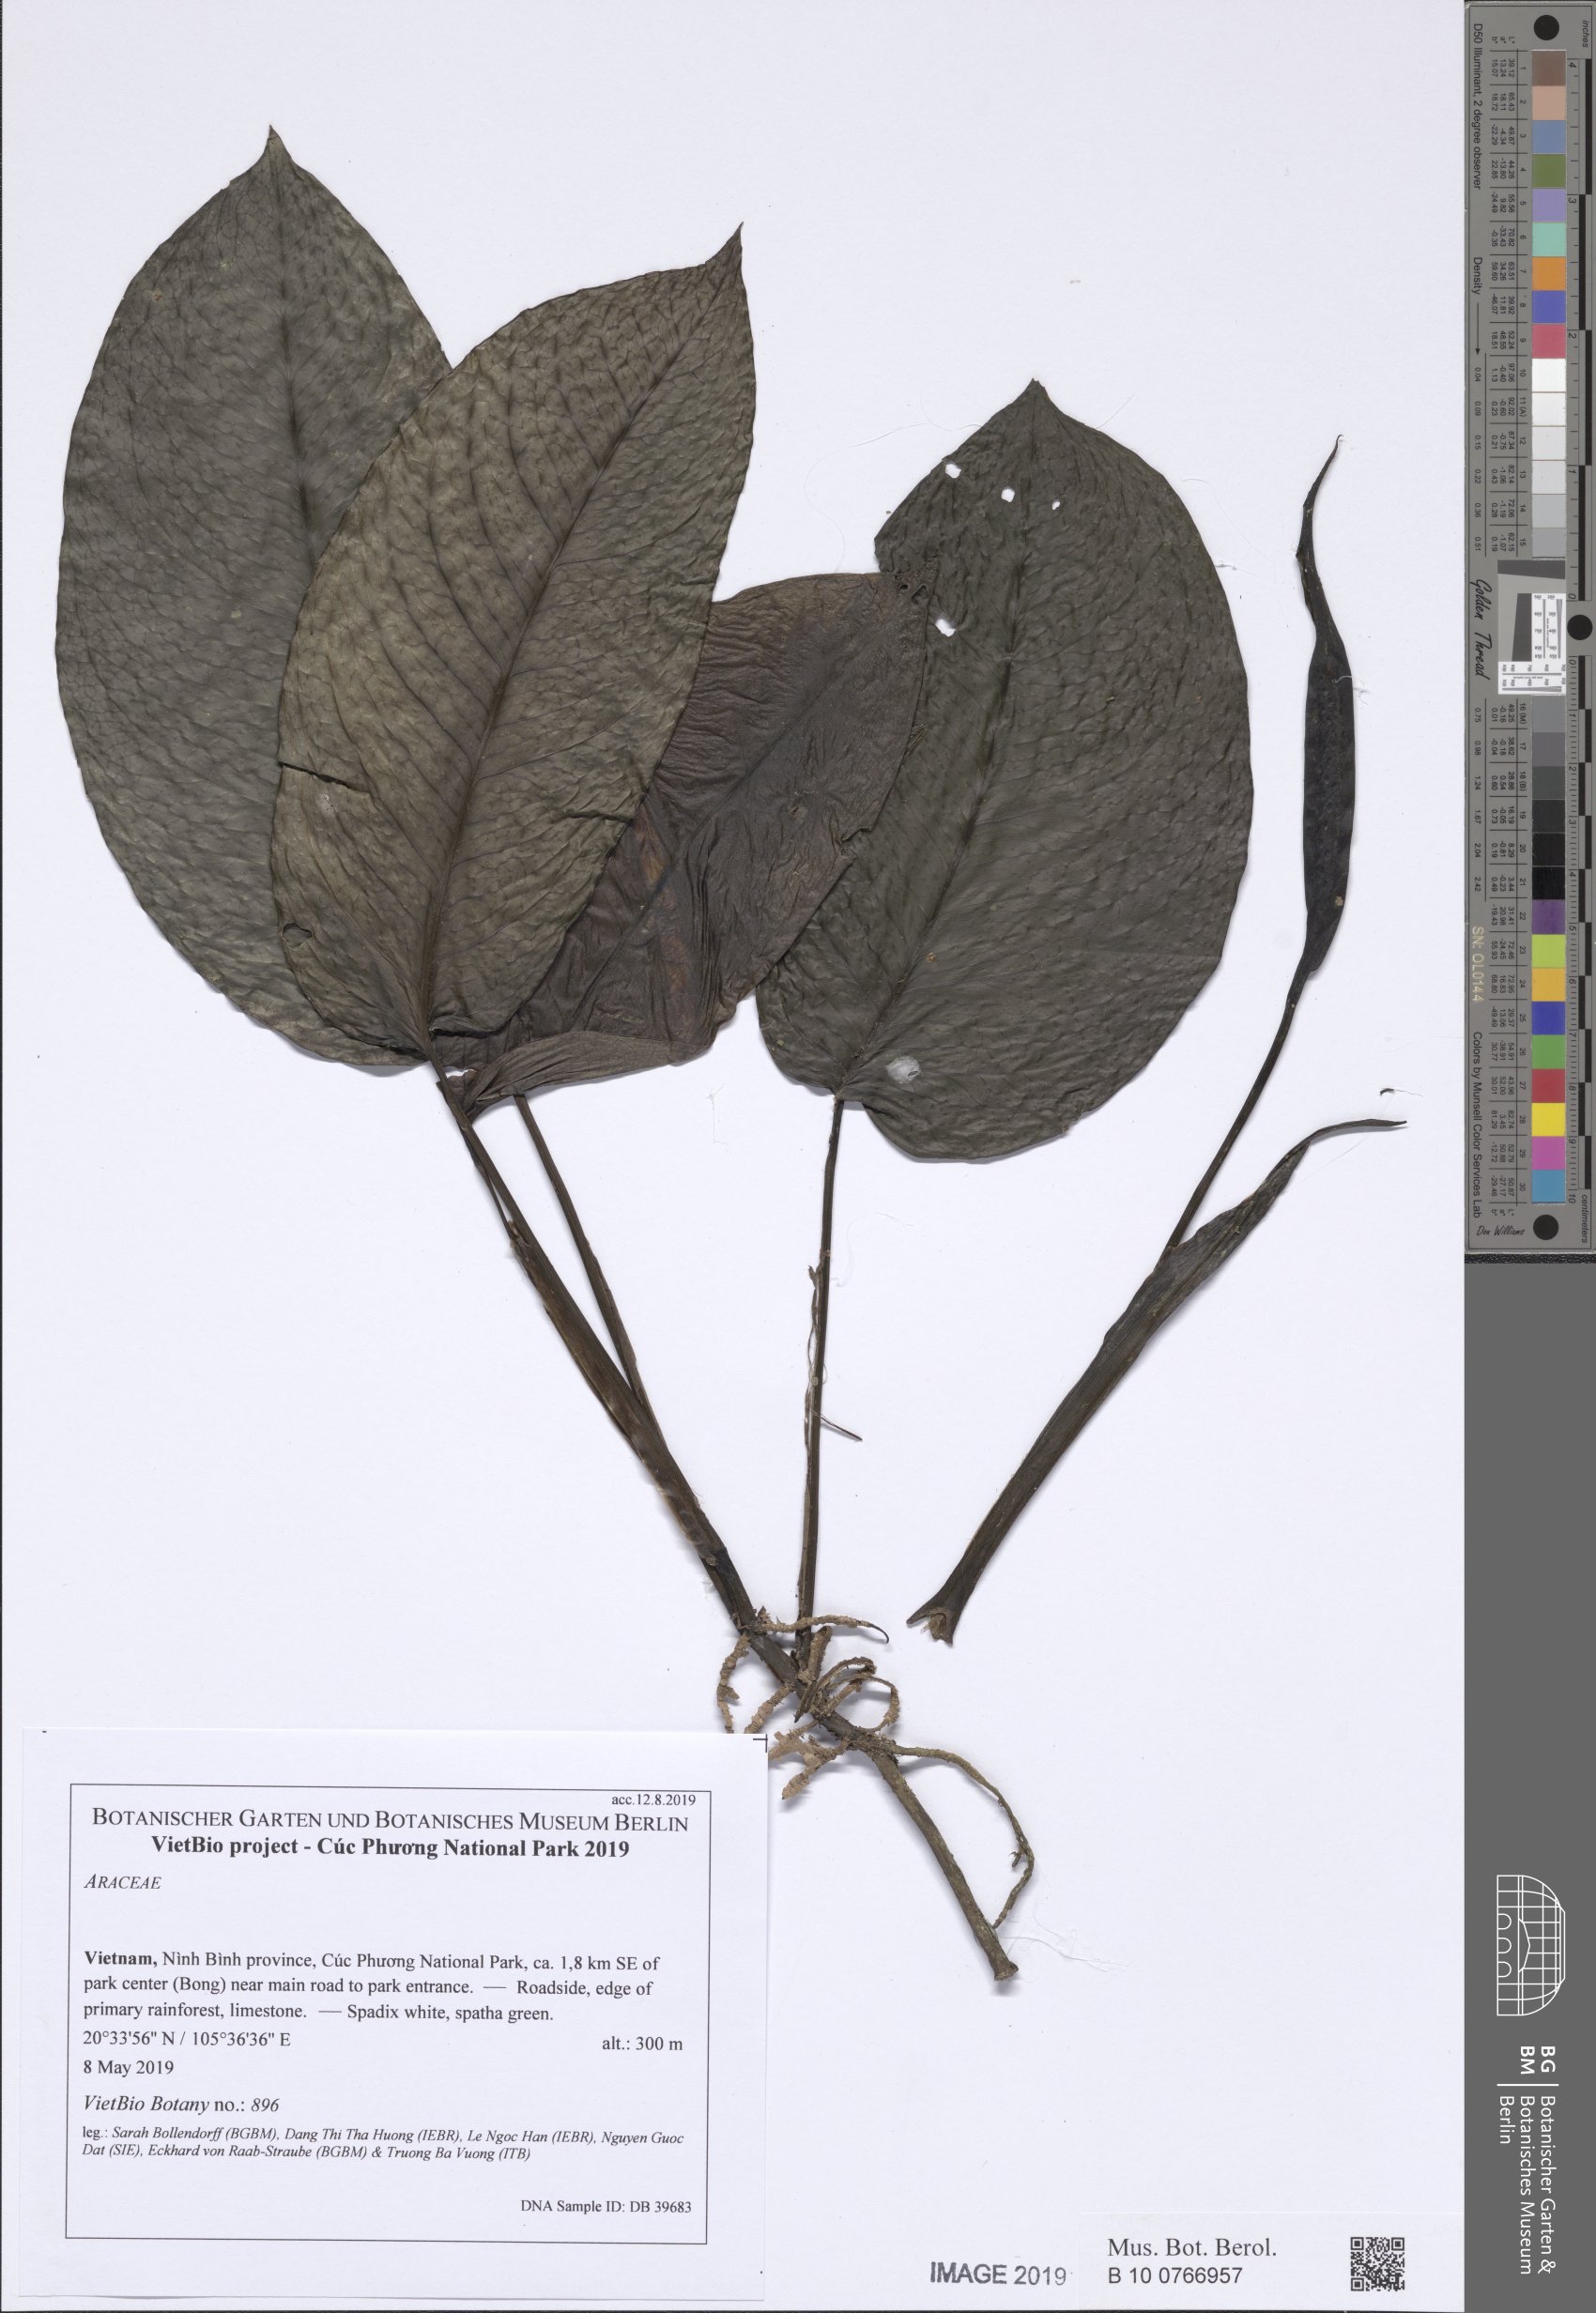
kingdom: Plantae
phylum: Tracheophyta
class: Liliopsida
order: Alismatales
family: Araceae
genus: Anadendrum
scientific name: Anadendrum latifolium
